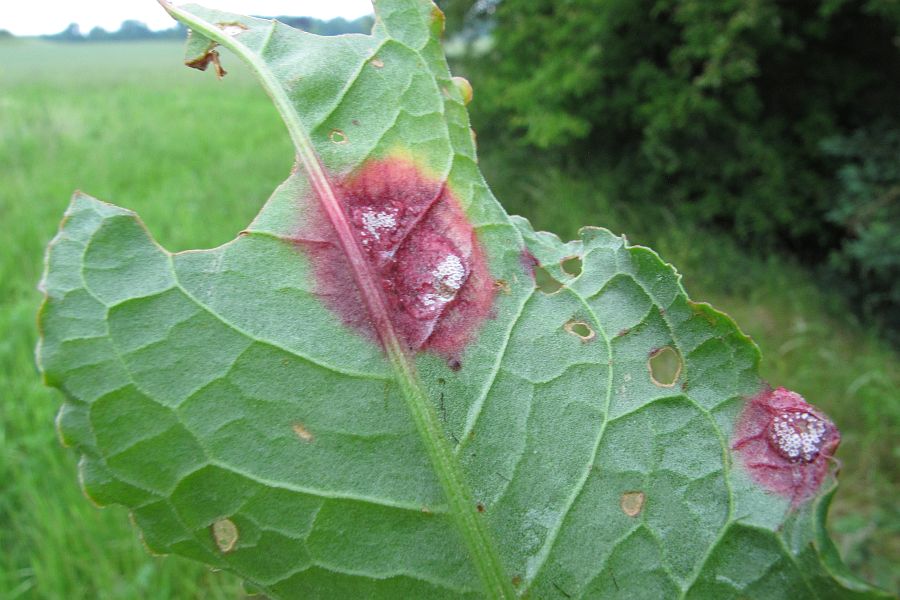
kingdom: Fungi
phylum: Basidiomycota
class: Pucciniomycetes
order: Pucciniales
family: Pucciniaceae
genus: Puccinia
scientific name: Puccinia phragmitis
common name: tagrør-tvecellerust
